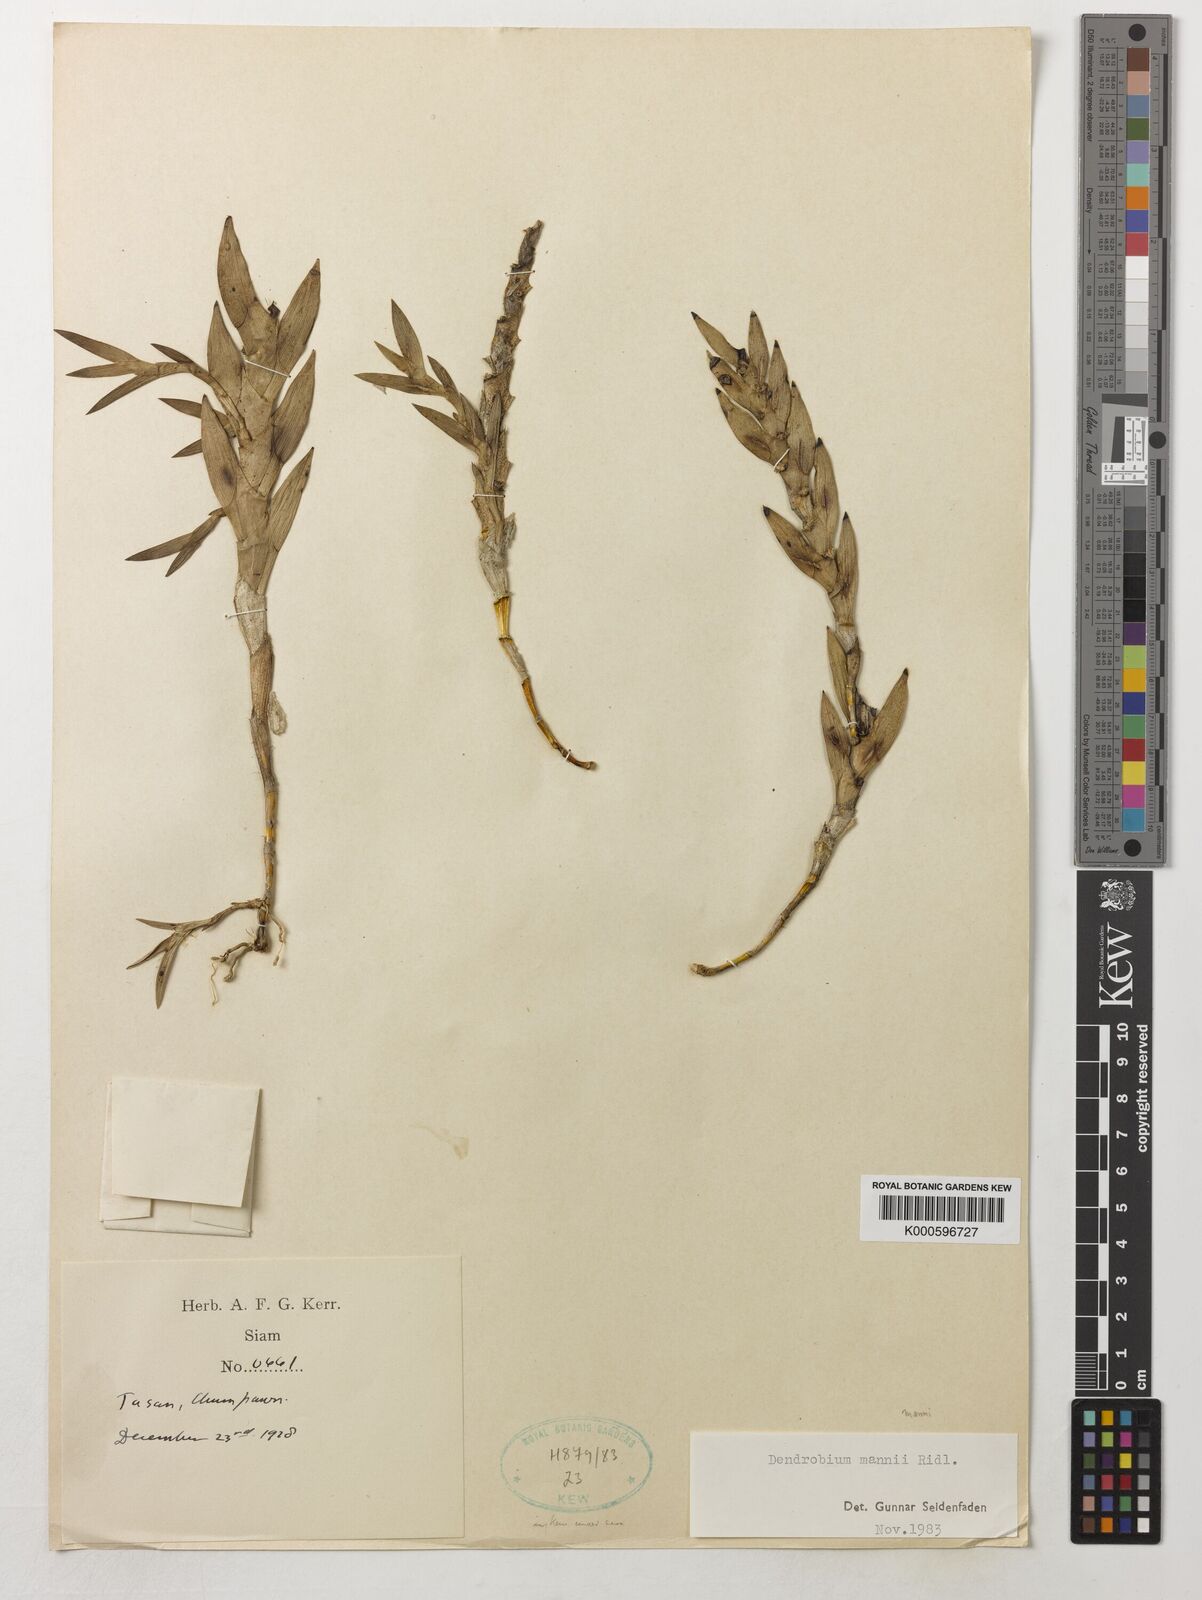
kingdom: Plantae
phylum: Tracheophyta
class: Liliopsida
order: Asparagales
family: Orchidaceae
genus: Dendrobium
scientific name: Dendrobium mannii
